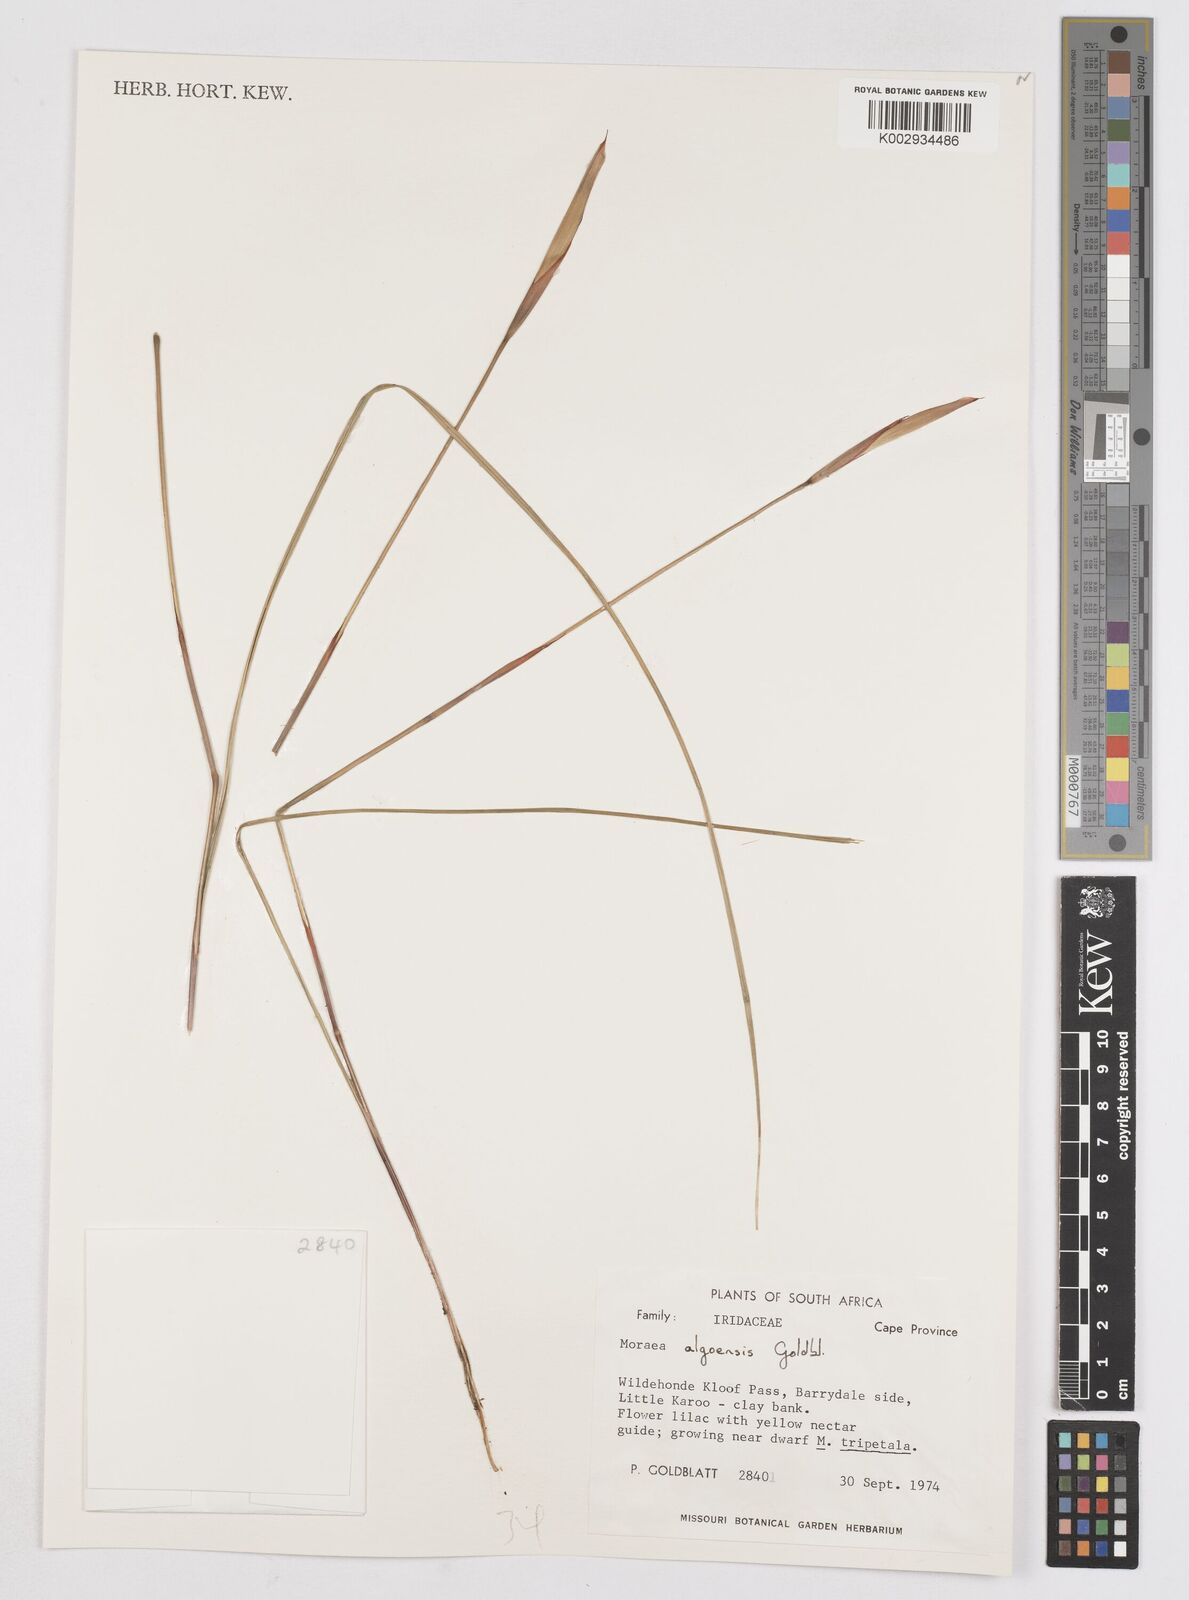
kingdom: Plantae
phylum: Tracheophyta
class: Liliopsida
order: Asparagales
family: Iridaceae
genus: Moraea
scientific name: Moraea algoensis
